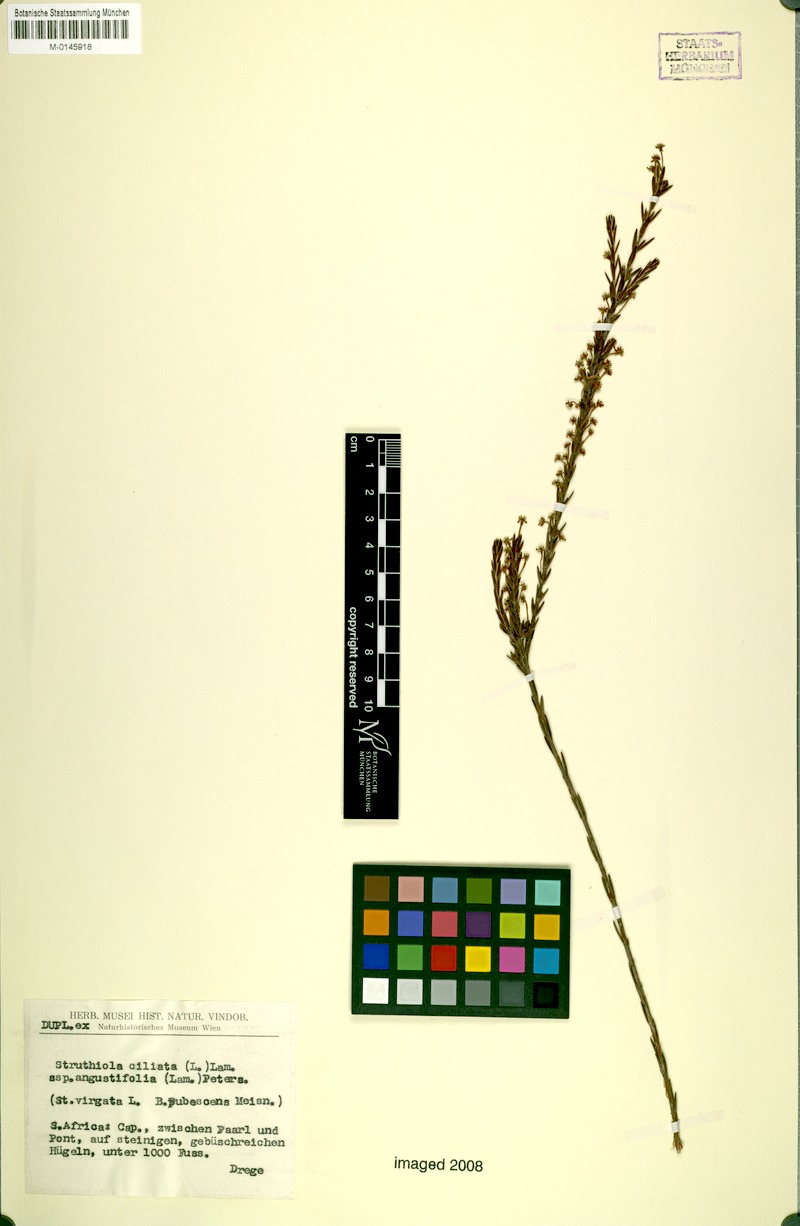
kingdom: Plantae
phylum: Tracheophyta
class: Magnoliopsida
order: Malvales
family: Thymelaeaceae
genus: Struthiola
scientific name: Struthiola ciliata
